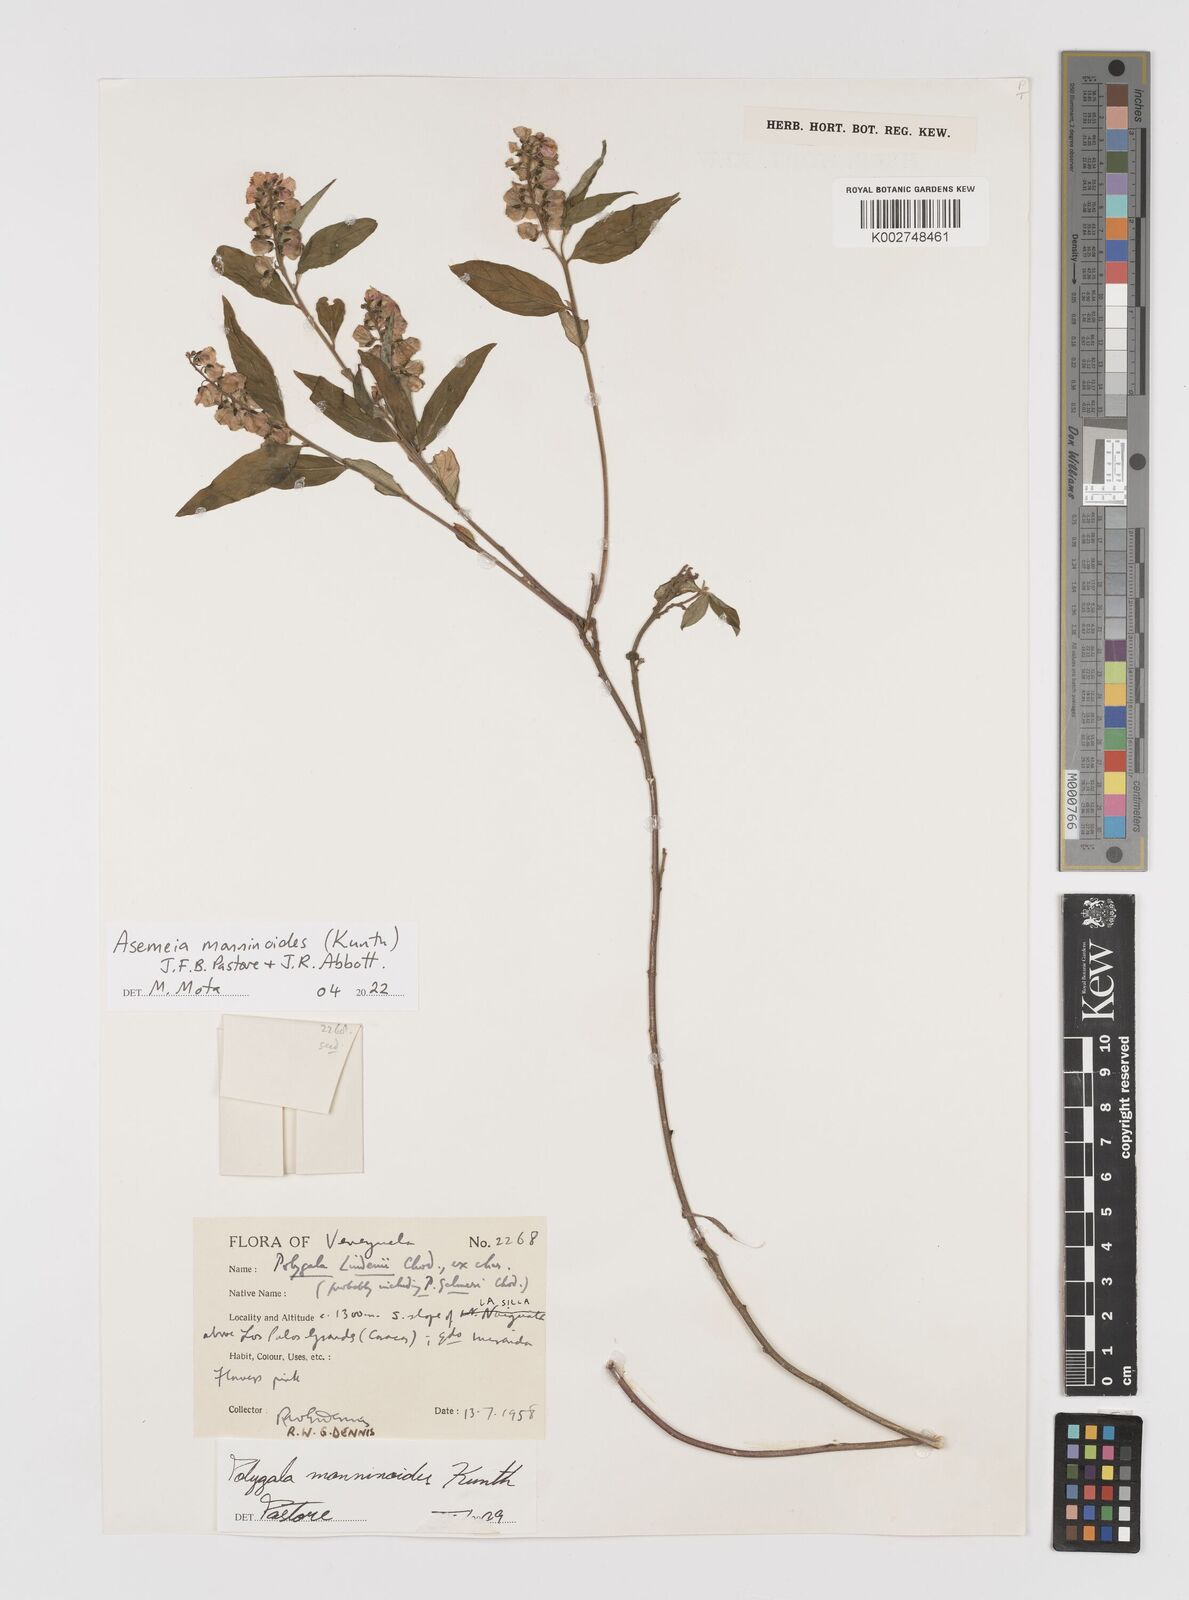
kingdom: Plantae
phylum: Tracheophyta
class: Magnoliopsida
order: Fabales
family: Polygalaceae
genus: Asemeia
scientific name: Asemeia monninoides
